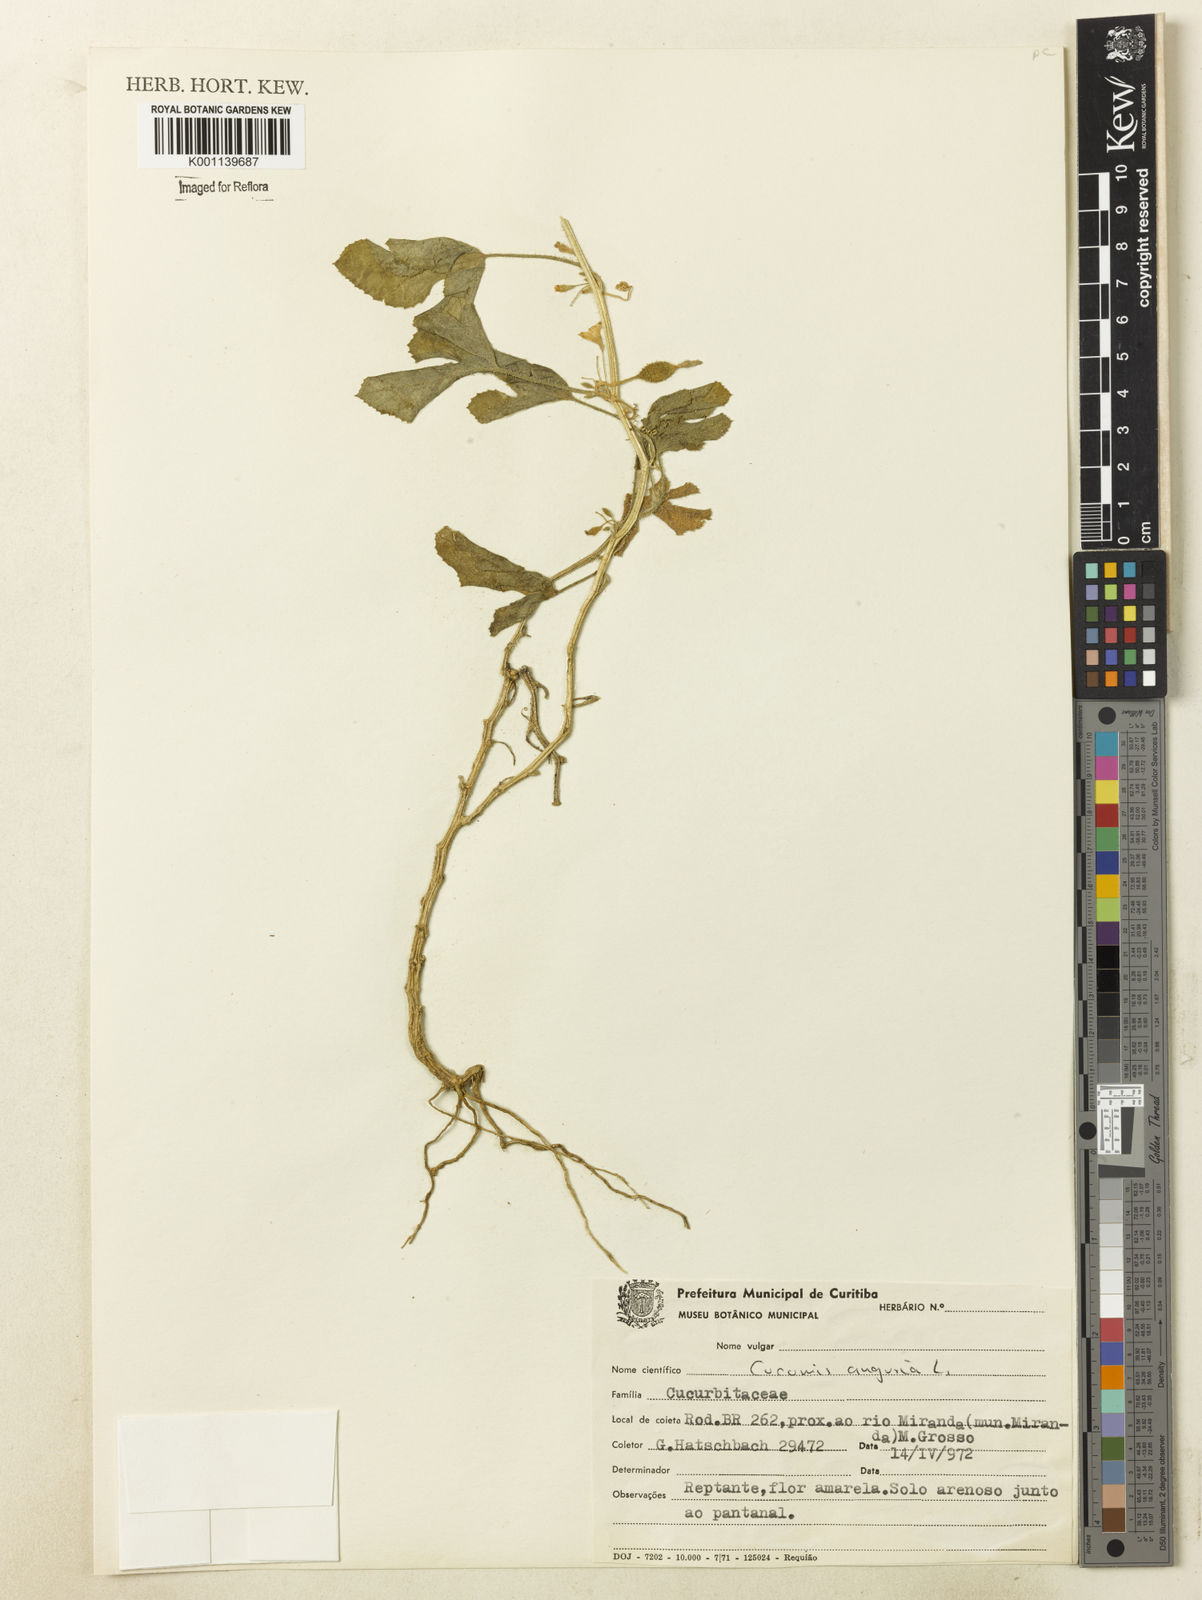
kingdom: Plantae
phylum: Tracheophyta
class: Magnoliopsida
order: Cucurbitales
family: Cucurbitaceae
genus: Cucumis
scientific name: Cucumis anguria
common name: West indian gherkin
